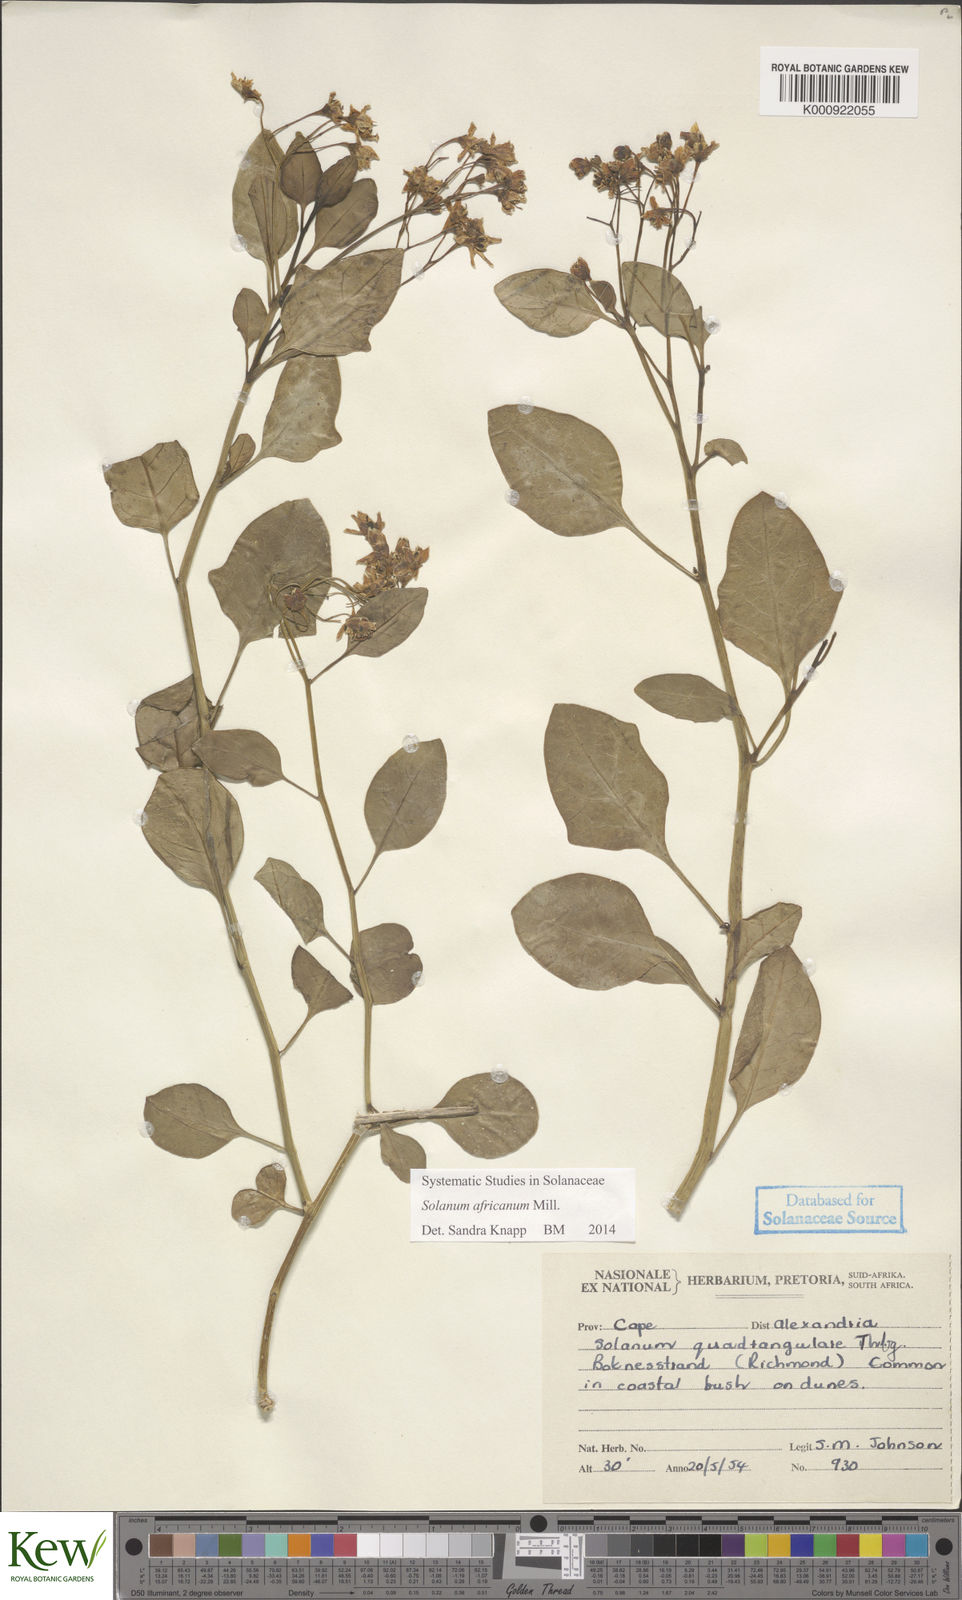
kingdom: Plantae
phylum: Tracheophyta
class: Magnoliopsida
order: Solanales
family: Solanaceae
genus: Solanum
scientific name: Solanum africanum
